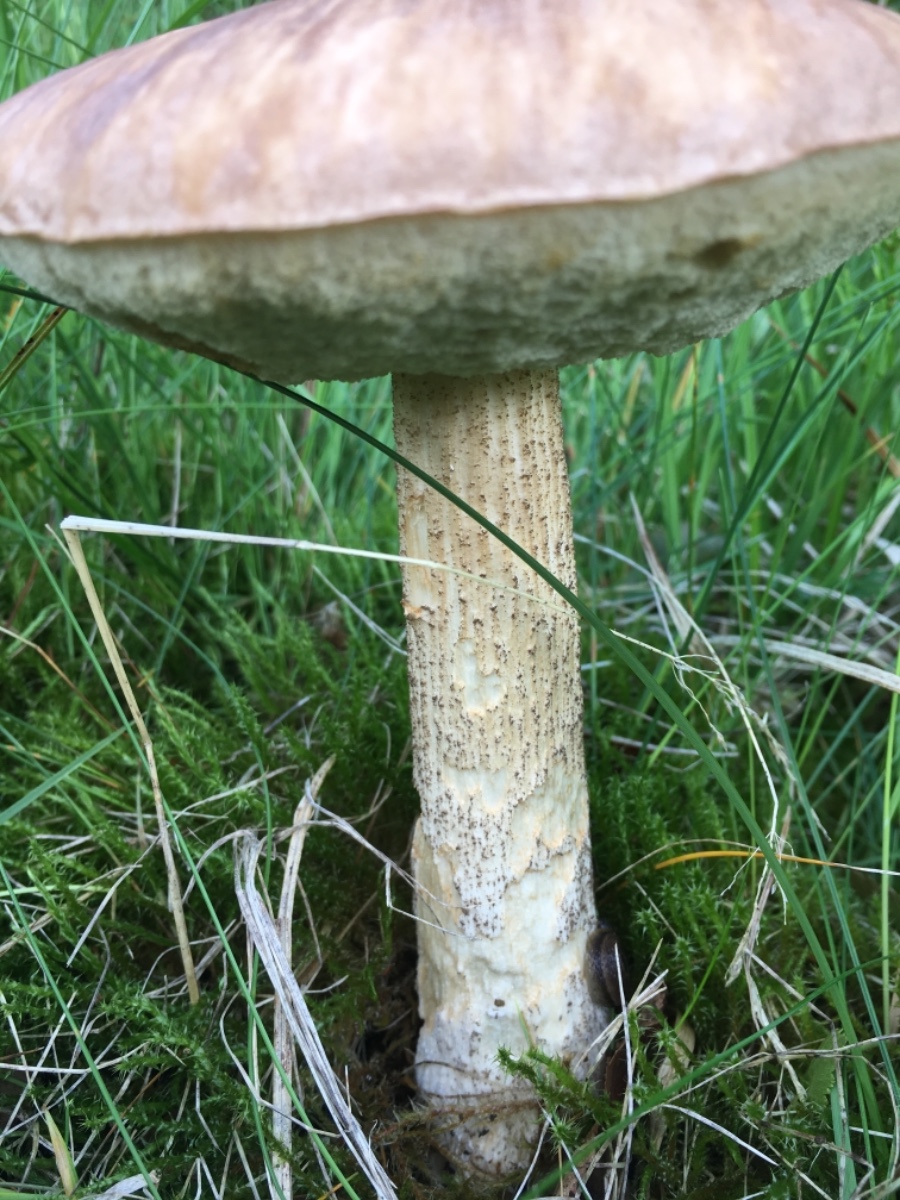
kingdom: Fungi
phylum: Basidiomycota
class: Agaricomycetes
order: Boletales
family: Boletaceae
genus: Leccinum
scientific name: Leccinum scabrum
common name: brun skælrørhat
